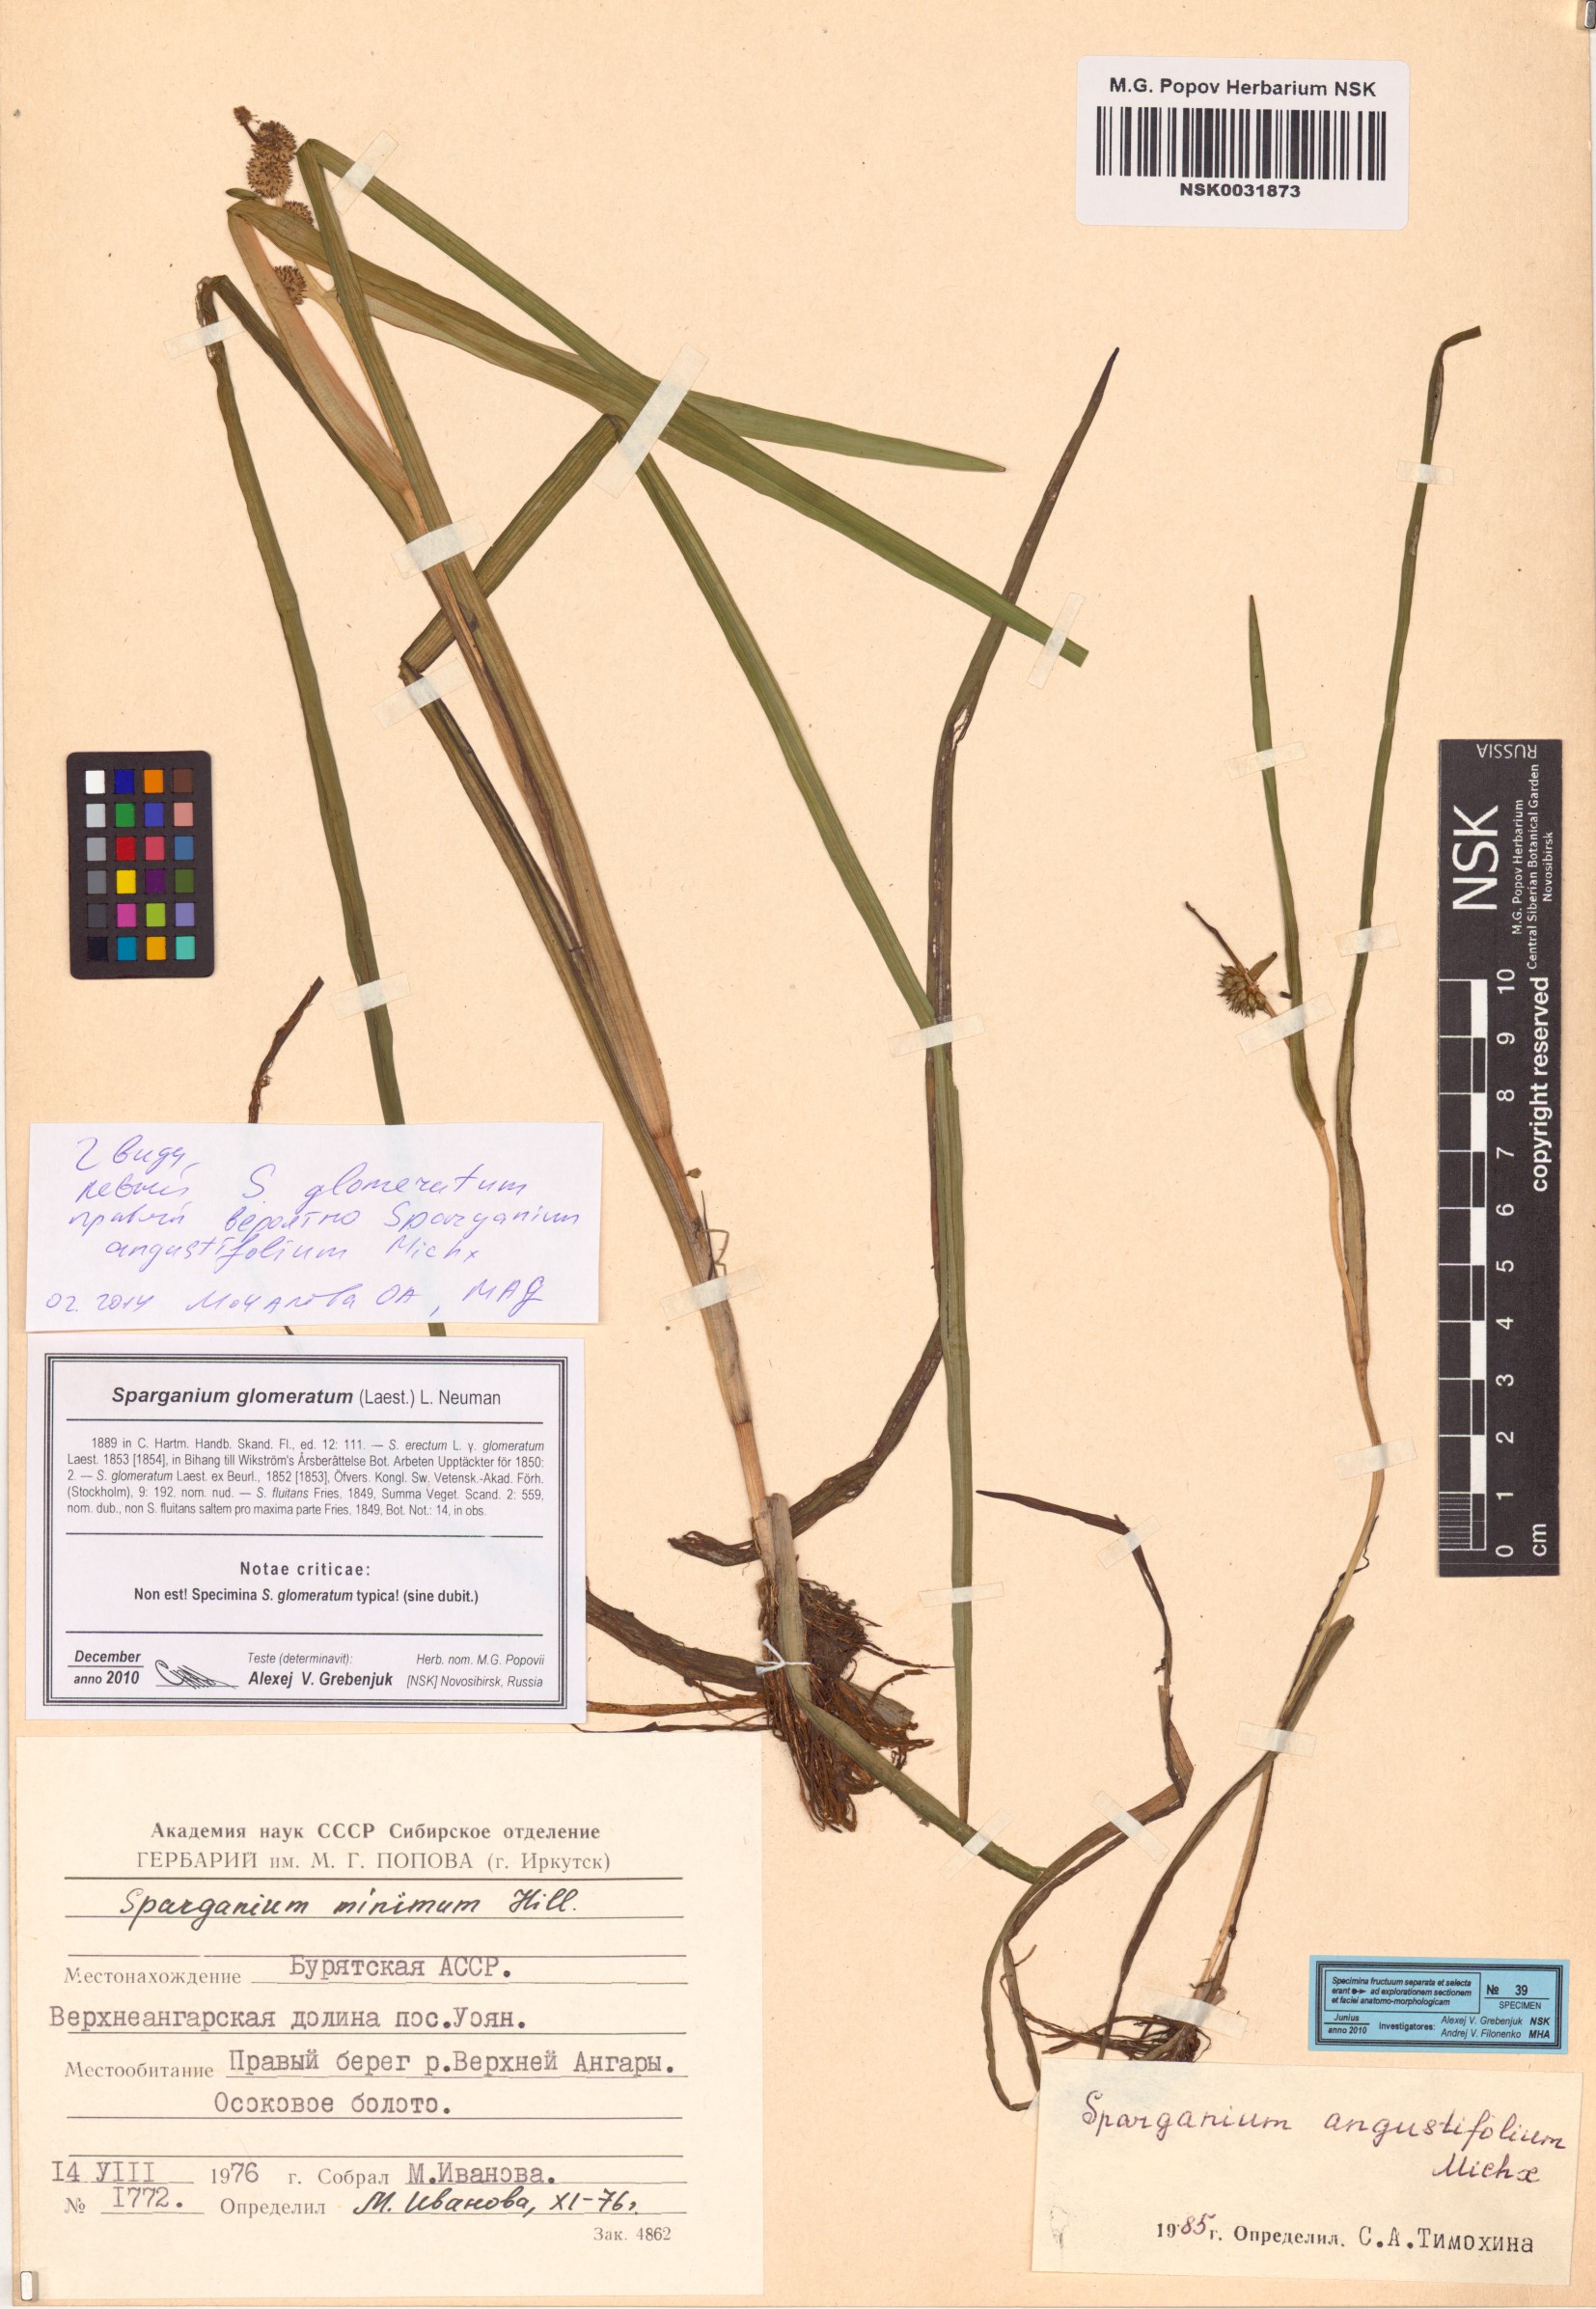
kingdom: Plantae
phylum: Tracheophyta
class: Liliopsida
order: Poales
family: Typhaceae
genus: Sparganium
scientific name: Sparganium glomeratum
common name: Clustered burreed
